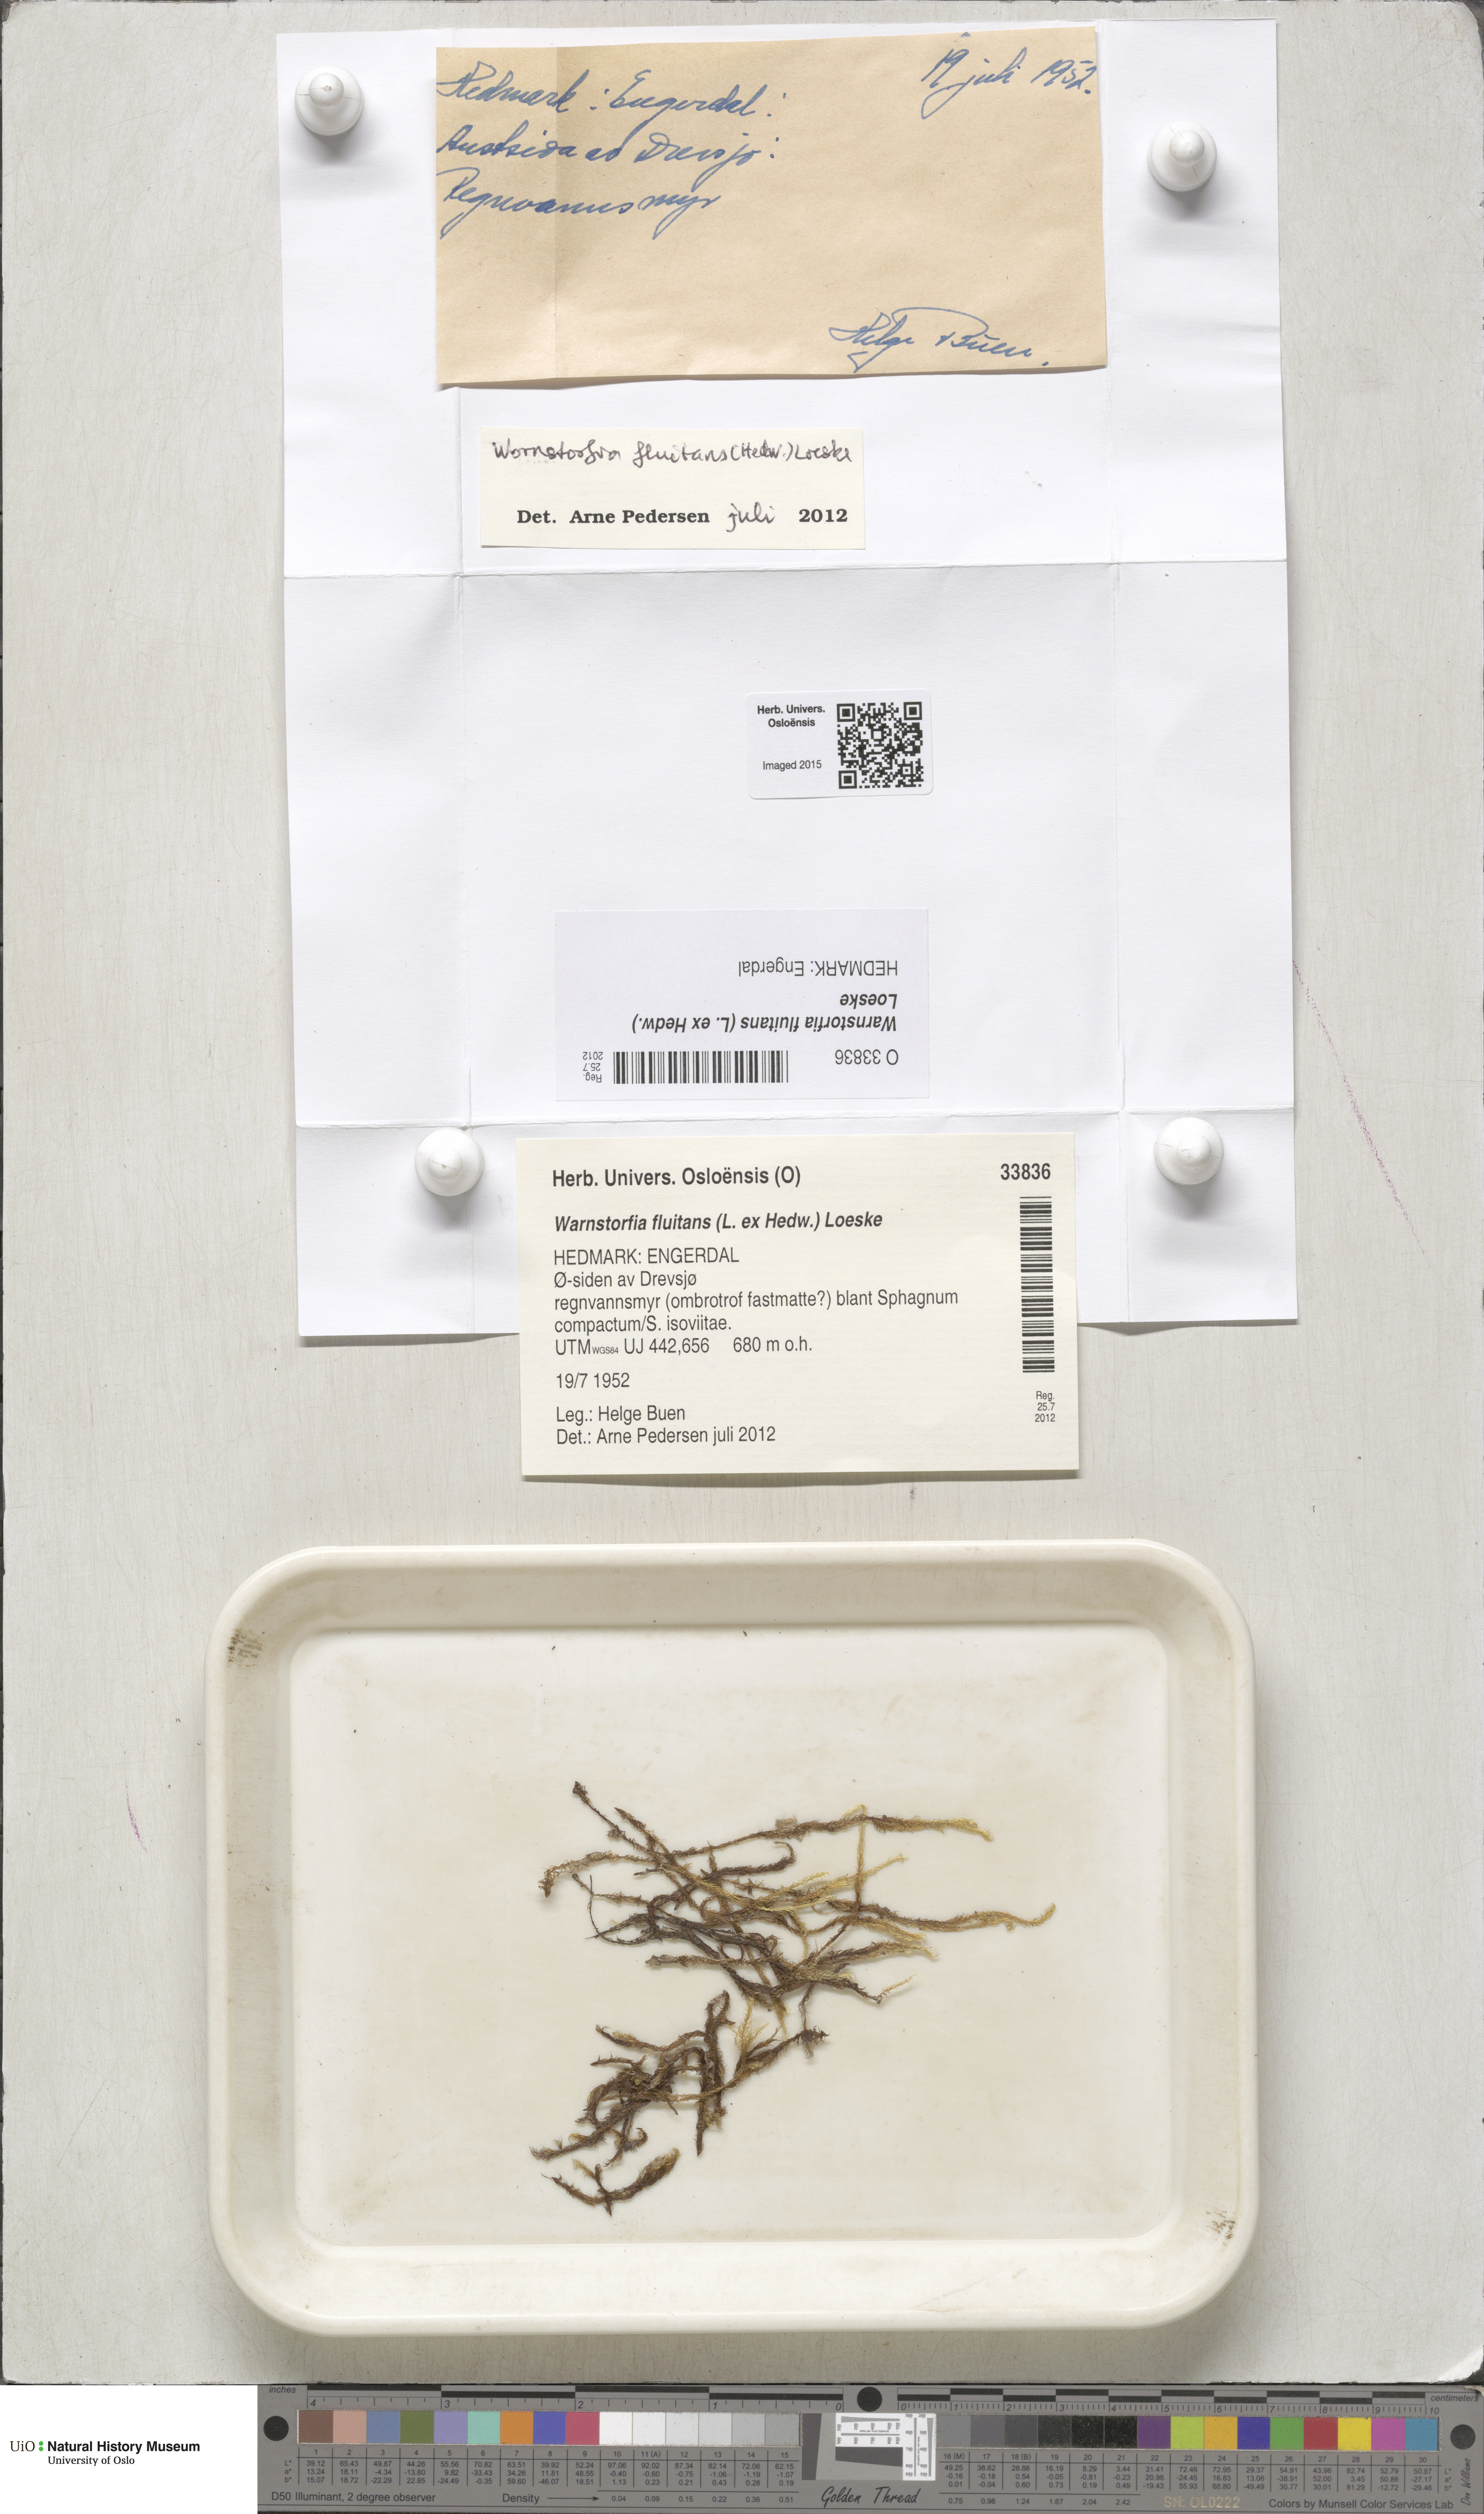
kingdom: Plantae
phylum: Bryophyta
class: Bryopsida
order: Hypnales
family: Calliergonaceae
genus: Warnstorfia
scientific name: Warnstorfia fluitans
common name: Floating hook moss
